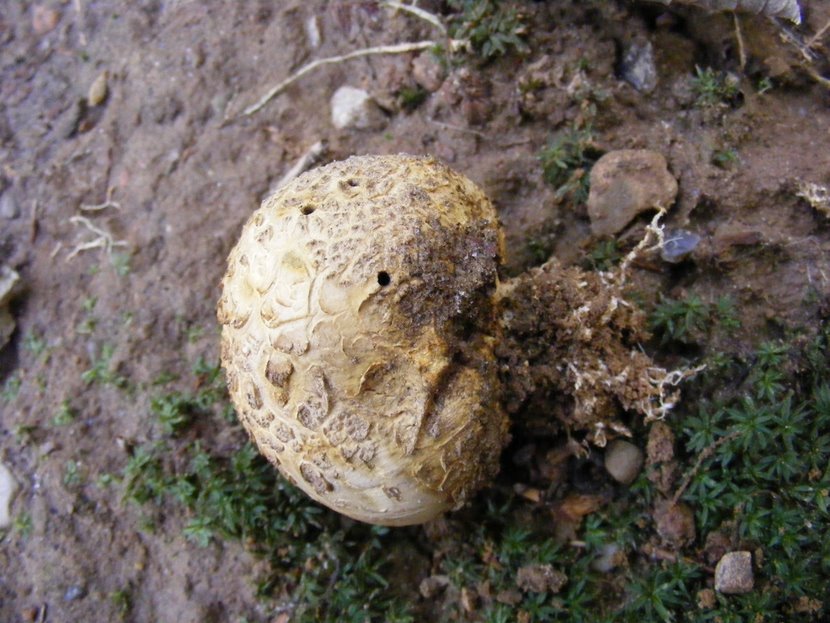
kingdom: Fungi
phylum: Basidiomycota
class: Agaricomycetes
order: Boletales
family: Sclerodermataceae
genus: Scleroderma
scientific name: Scleroderma citrinum
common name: almindelig bruskbold
